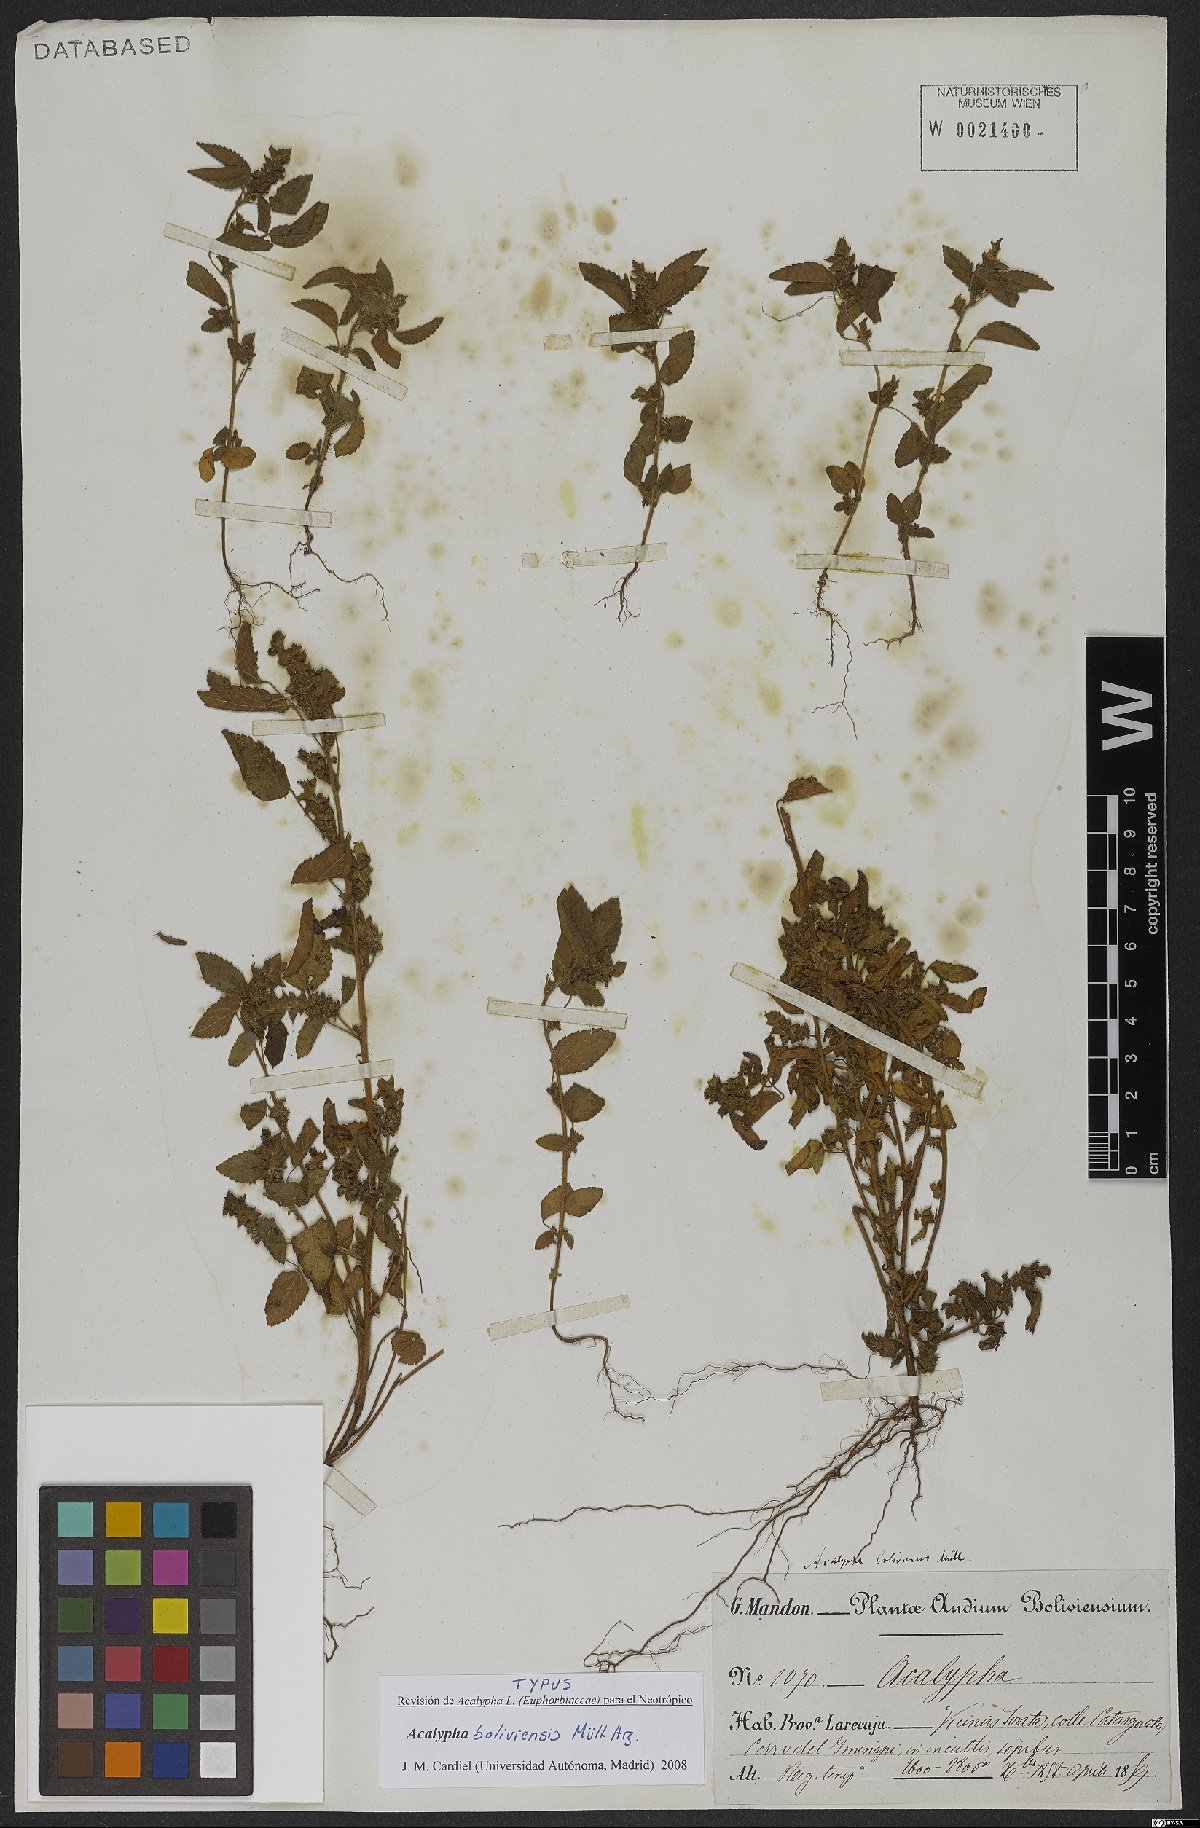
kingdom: Plantae
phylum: Tracheophyta
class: Magnoliopsida
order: Malpighiales
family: Euphorbiaceae
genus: Acalypha
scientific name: Acalypha boliviensis
